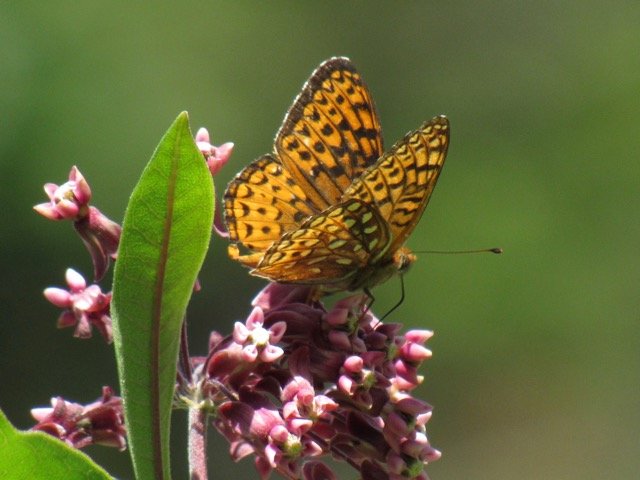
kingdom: Animalia
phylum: Arthropoda
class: Insecta
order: Lepidoptera
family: Nymphalidae
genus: Speyeria
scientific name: Speyeria atlantis
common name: Atlantis Fritillary
